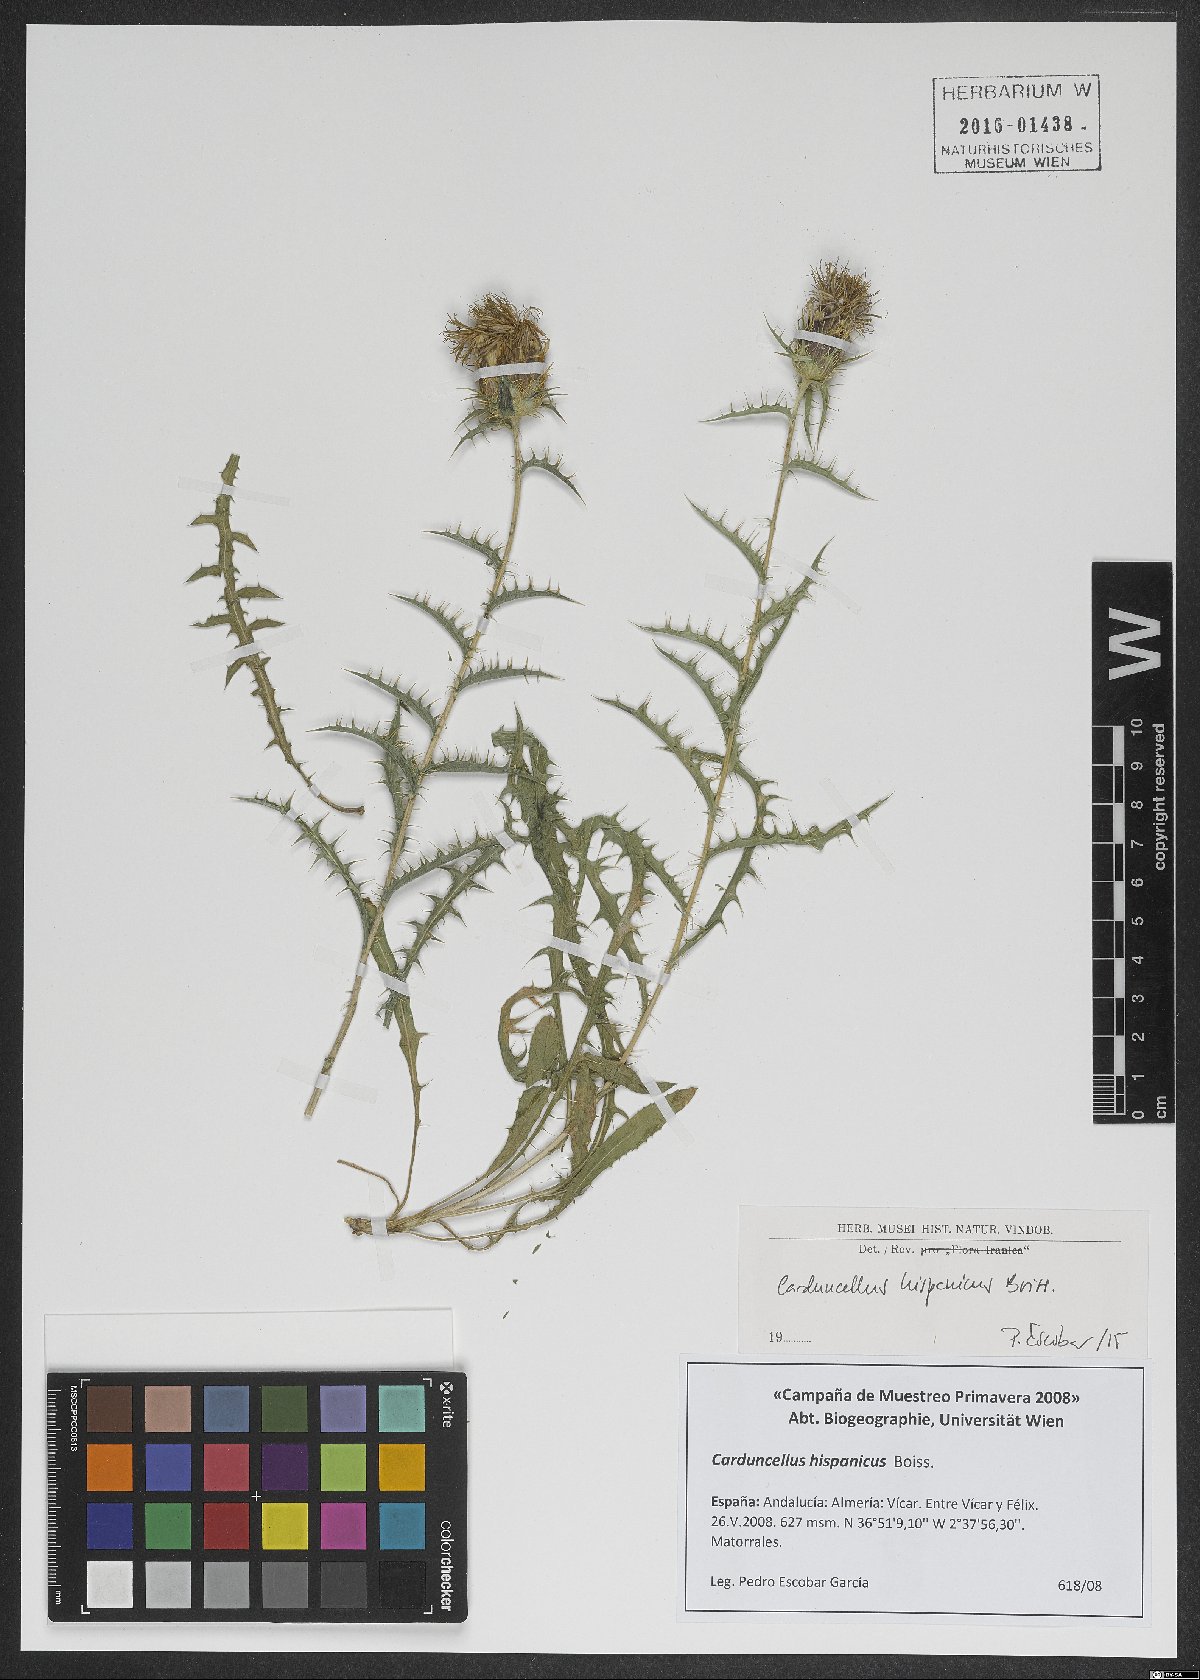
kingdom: Plantae
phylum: Tracheophyta
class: Magnoliopsida
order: Asterales
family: Asteraceae
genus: Carduncellus
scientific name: Carduncellus hispanicus
